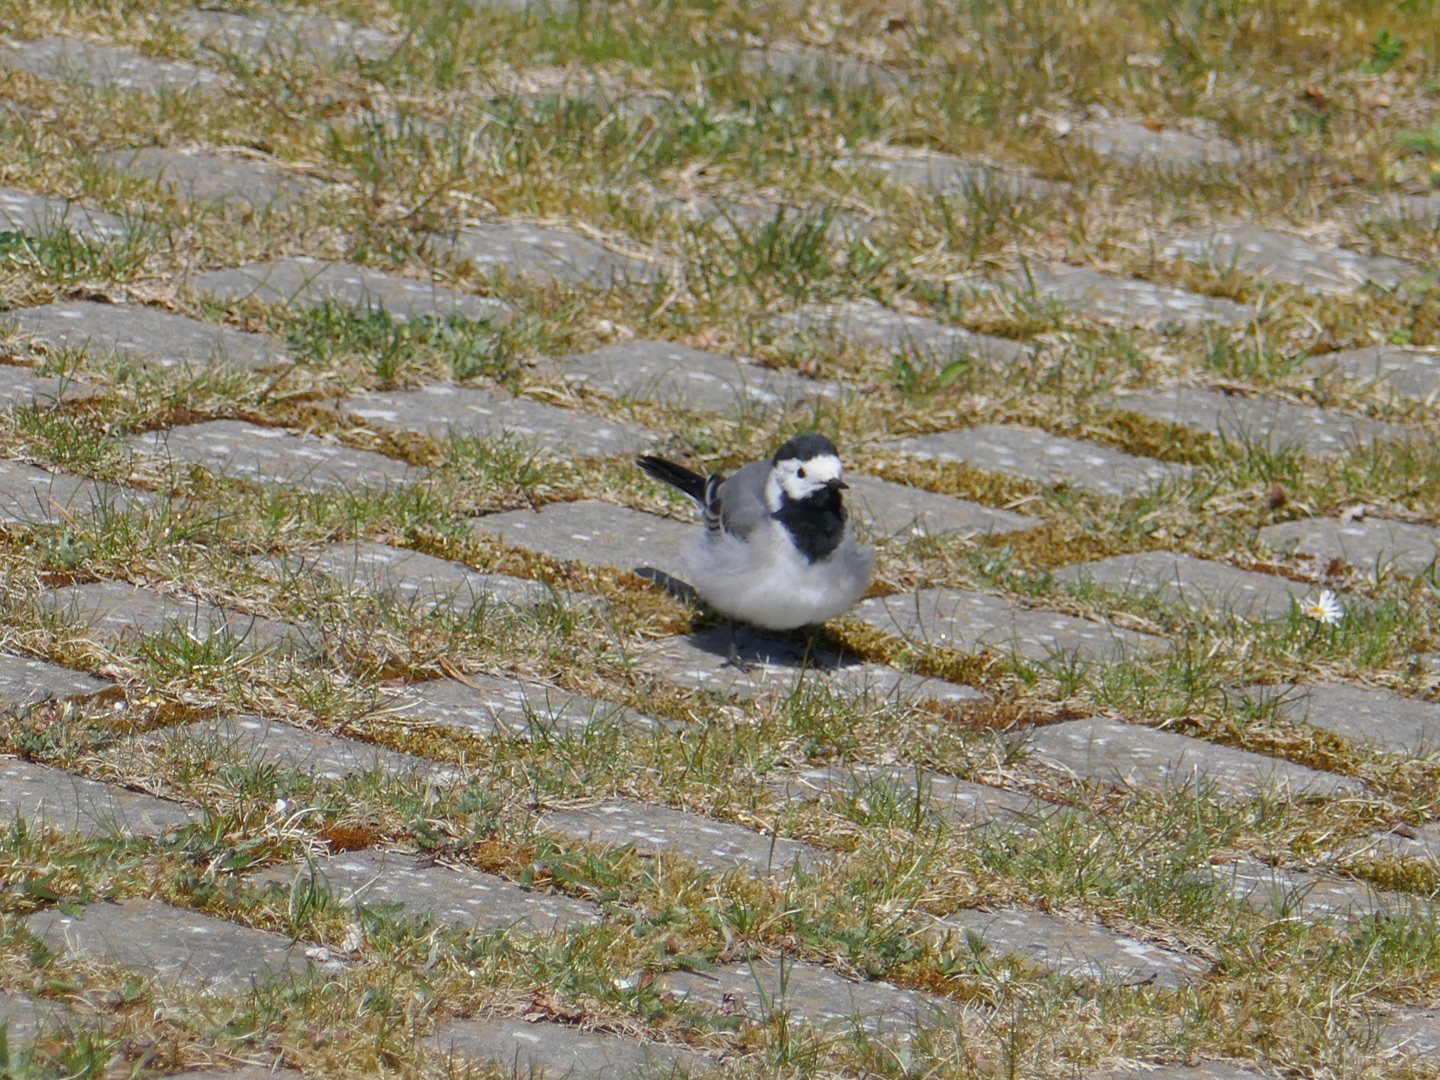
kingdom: Animalia
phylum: Chordata
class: Aves
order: Passeriformes
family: Motacillidae
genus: Motacilla
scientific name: Motacilla alba
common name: Hvid vipstjert
